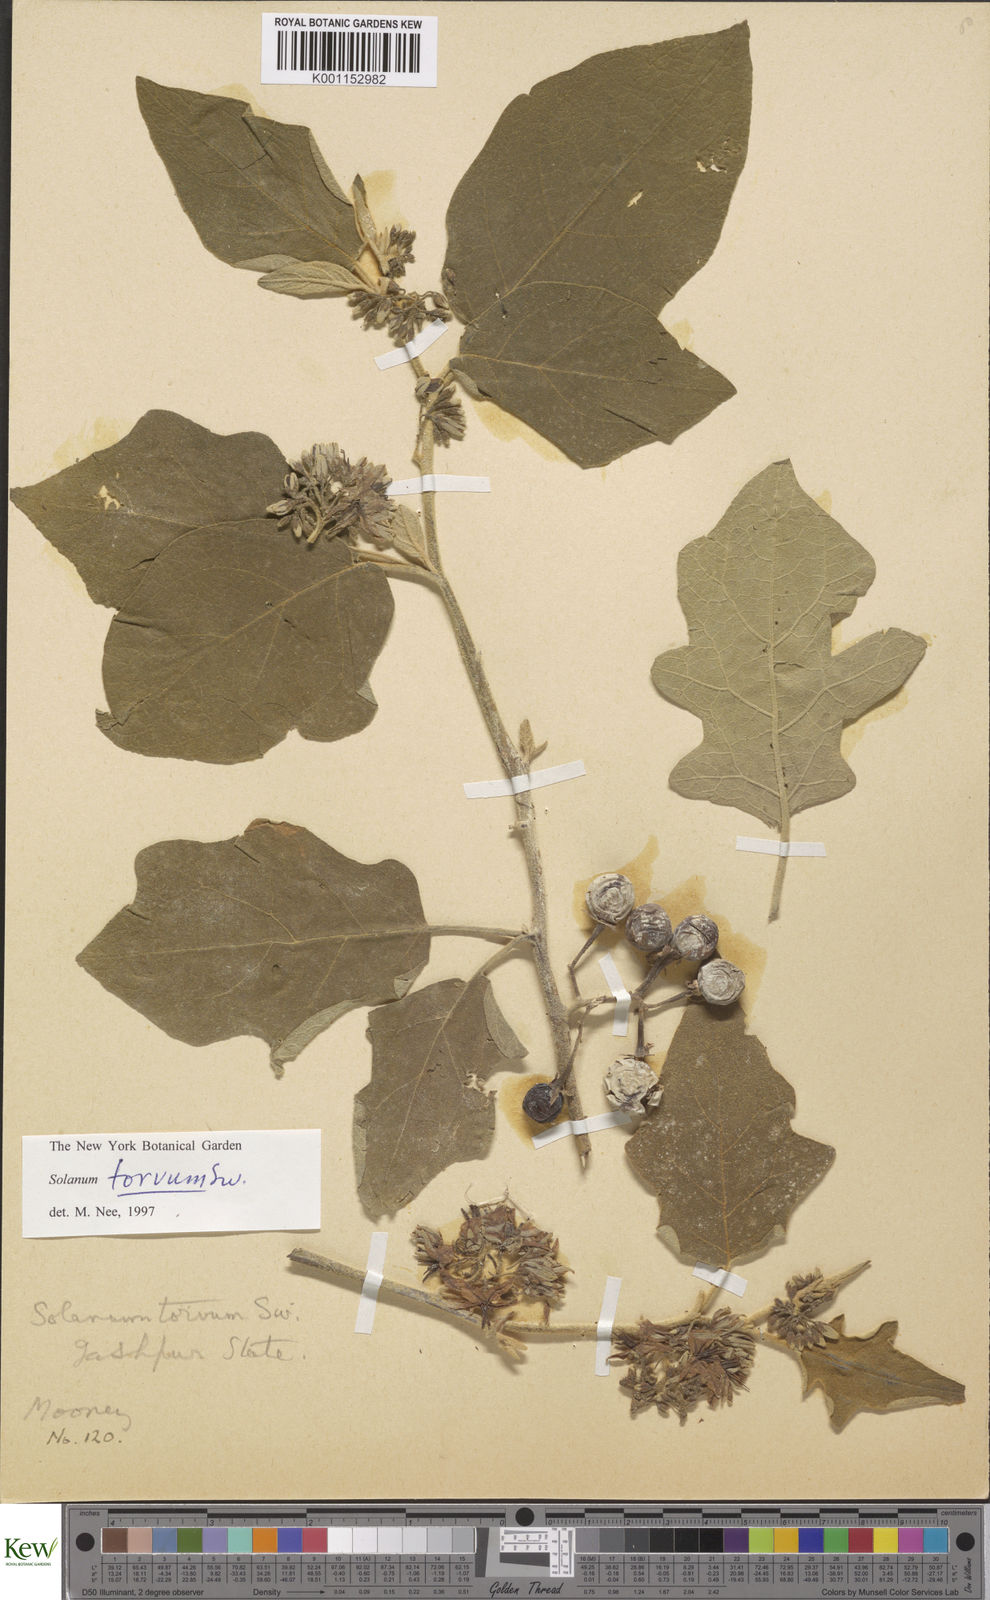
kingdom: Plantae
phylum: Tracheophyta
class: Magnoliopsida
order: Solanales
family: Solanaceae
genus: Solanum
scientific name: Solanum torvum
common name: Turkey berry
